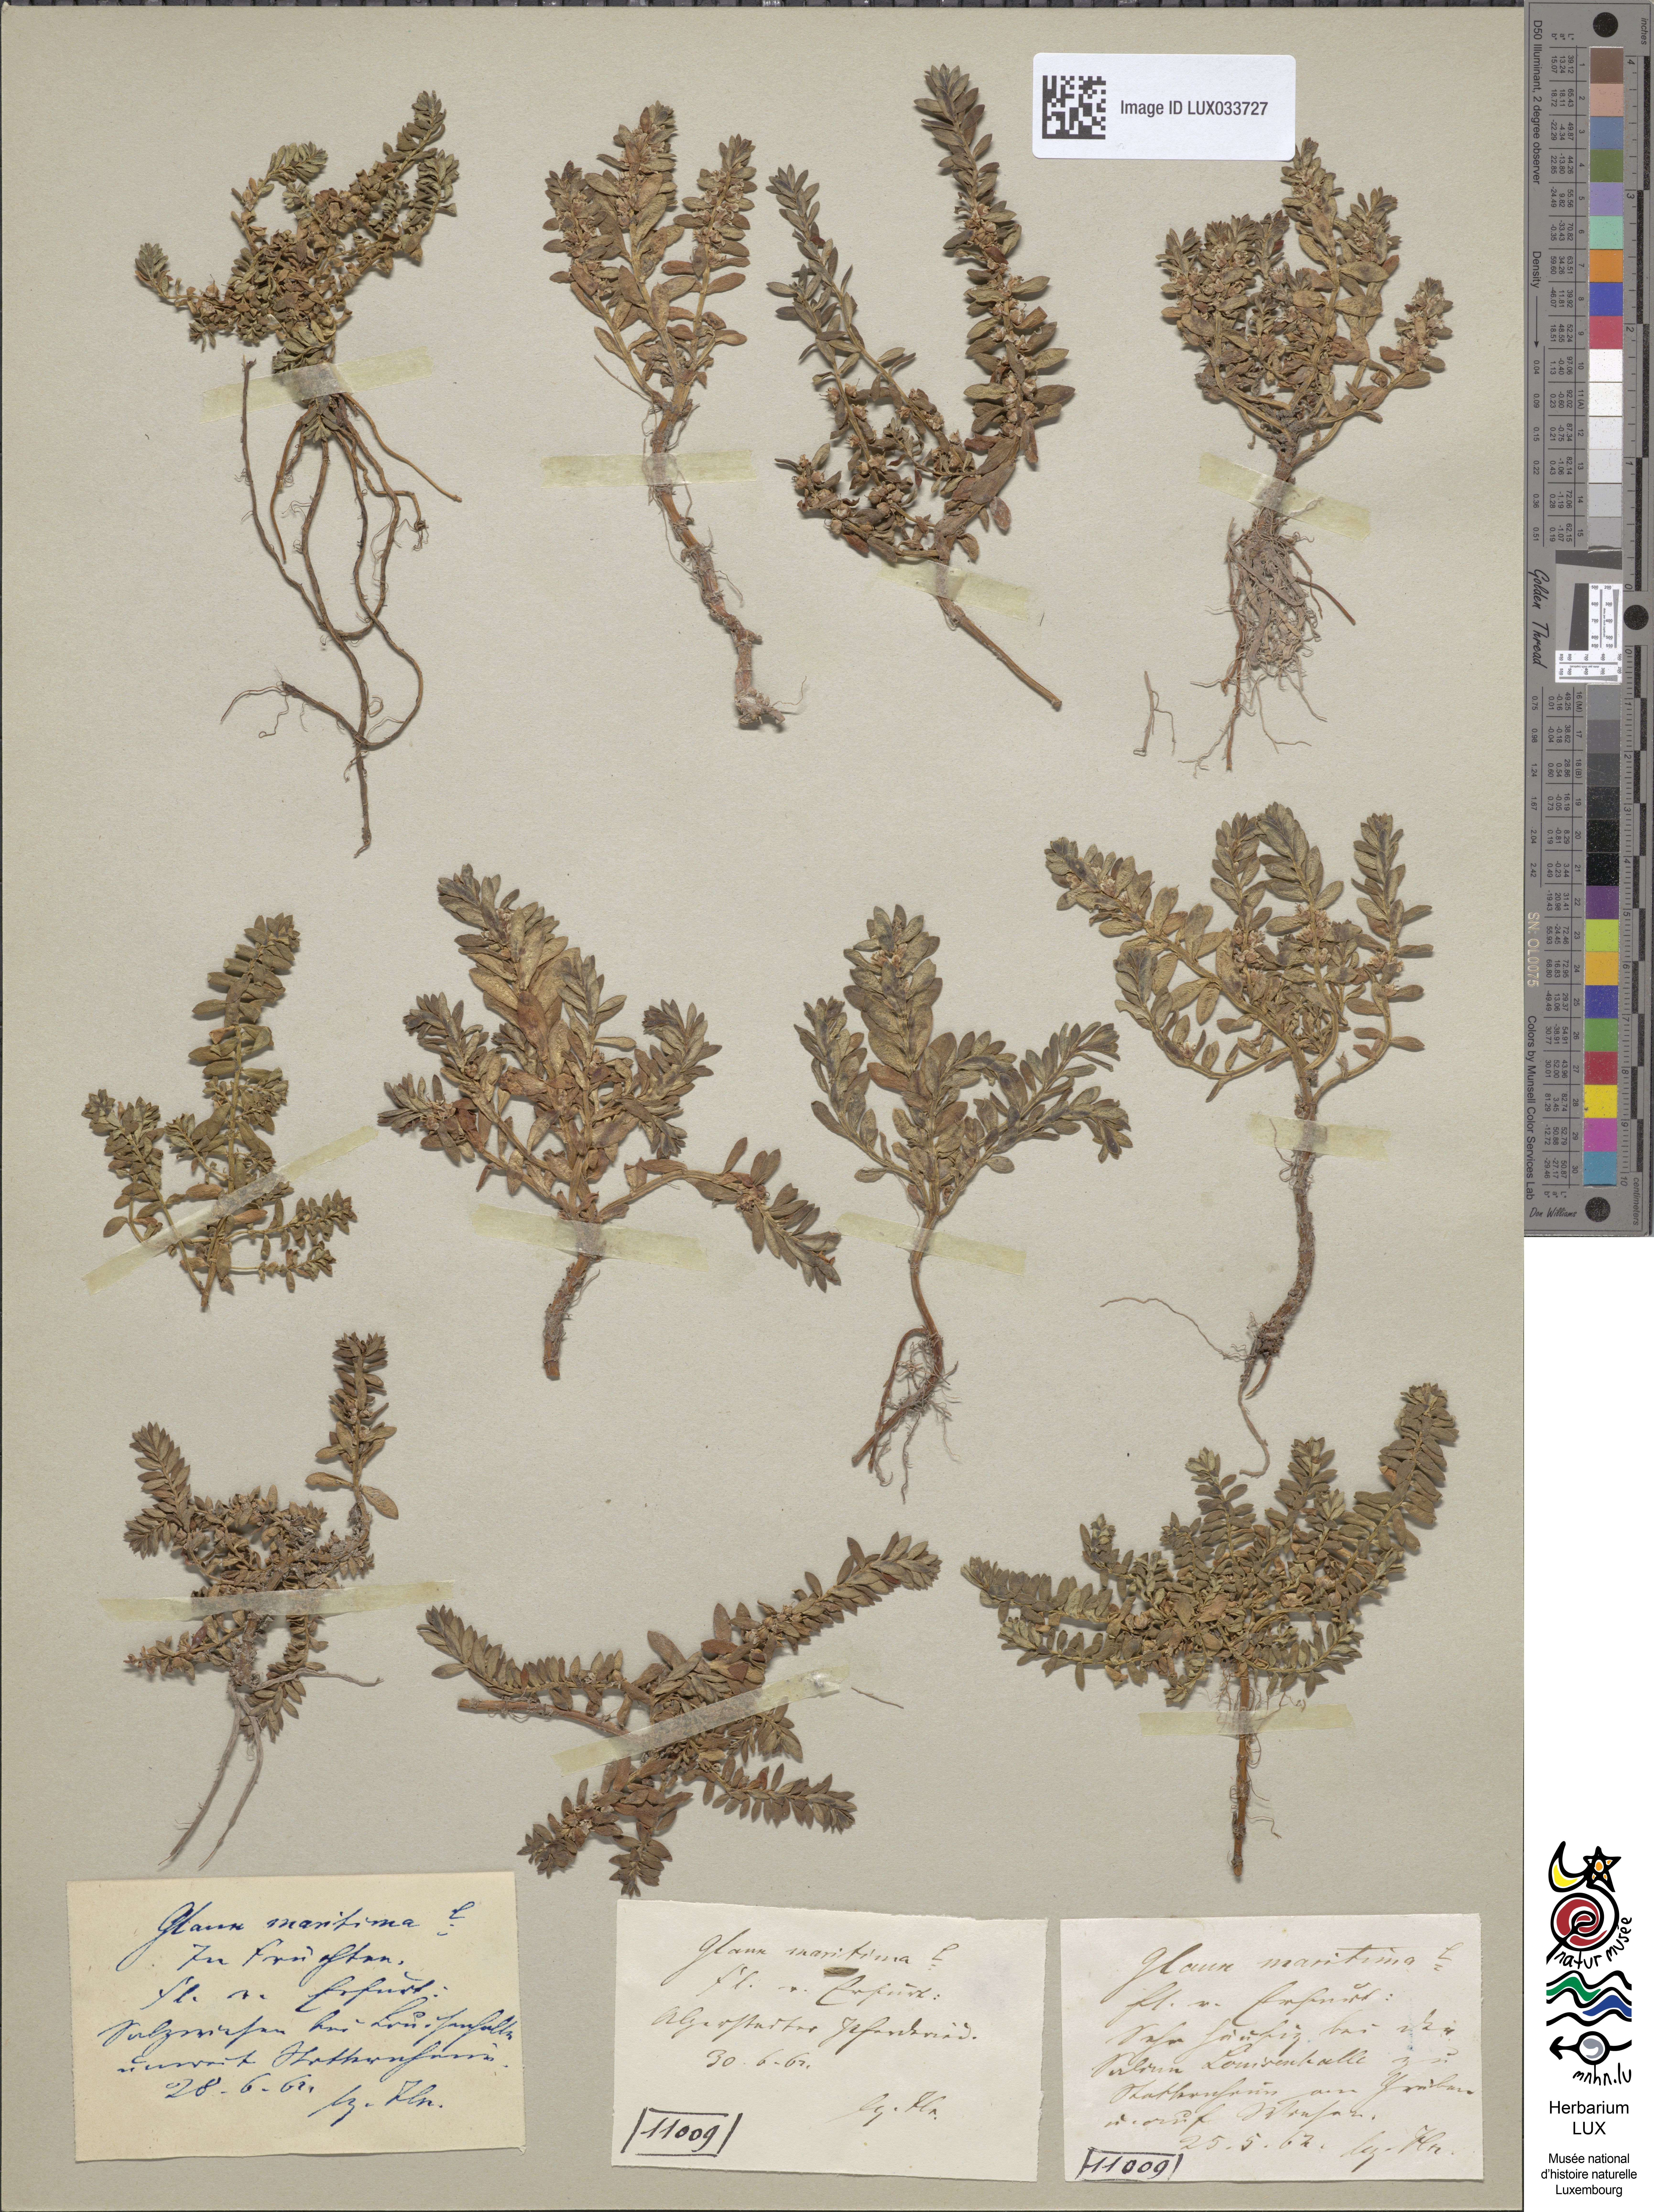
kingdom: Plantae
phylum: Tracheophyta
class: Magnoliopsida
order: Ericales
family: Primulaceae
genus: Lysimachia
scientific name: Lysimachia maritima
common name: Sea milkwort
